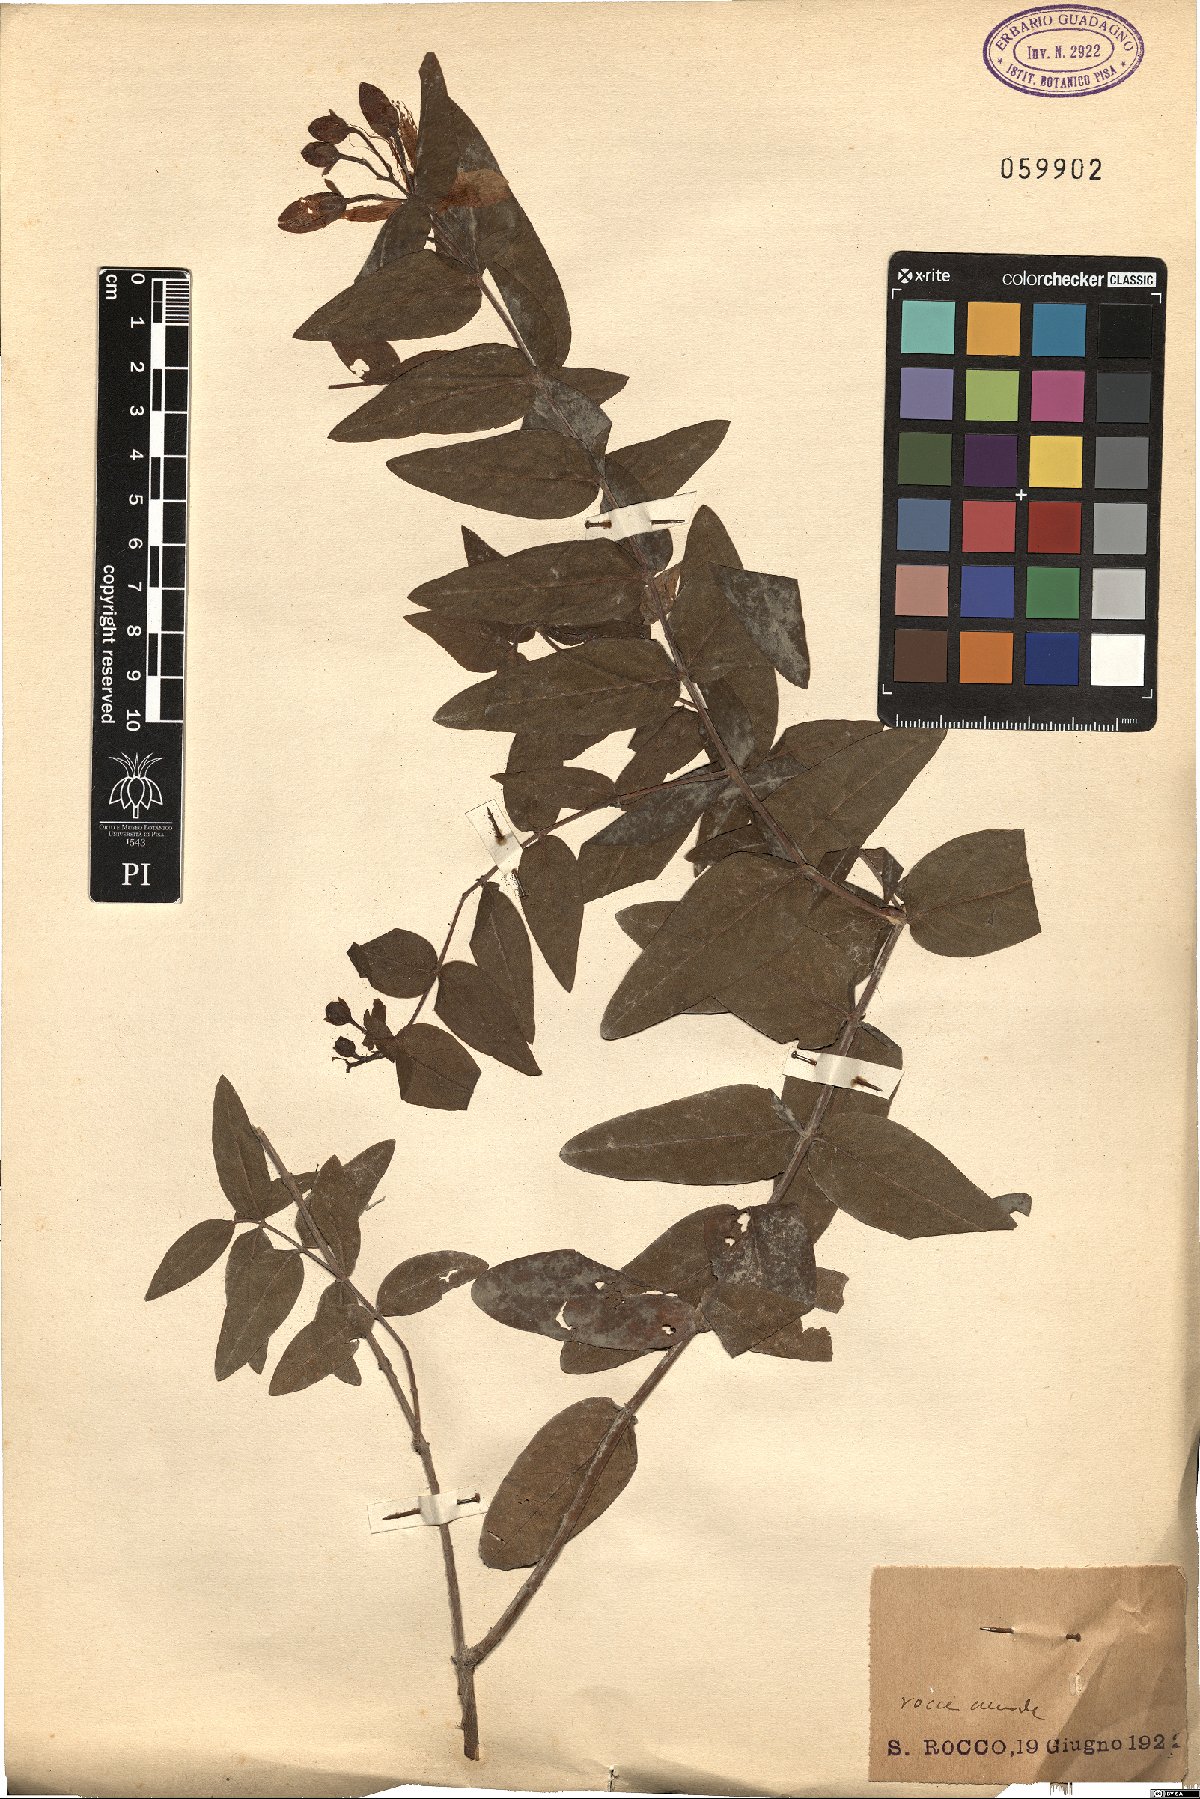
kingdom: Plantae
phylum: Tracheophyta
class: Magnoliopsida
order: Malpighiales
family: Hypericaceae
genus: Hypericum
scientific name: Hypericum hircinum
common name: Stinking tutsan
